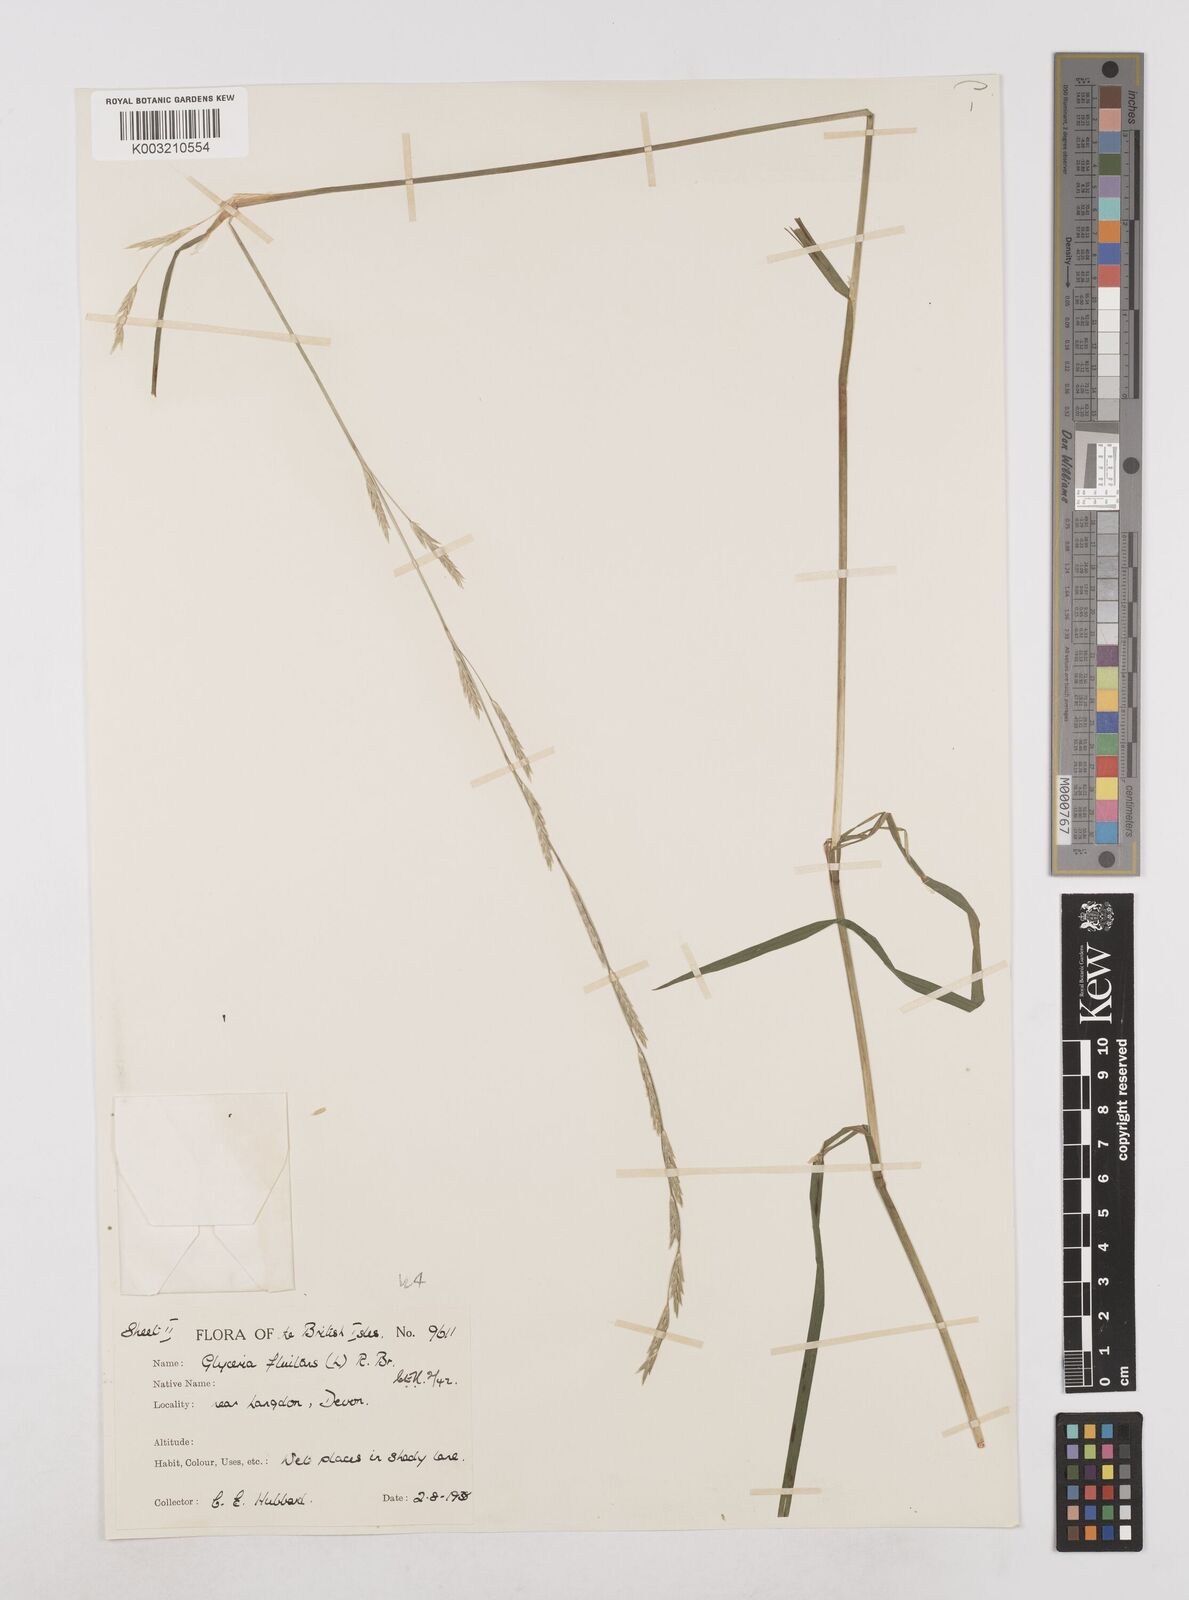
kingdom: Plantae
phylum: Tracheophyta
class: Liliopsida
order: Poales
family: Poaceae
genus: Glyceria
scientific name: Glyceria fluitans
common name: Floating sweet-grass
